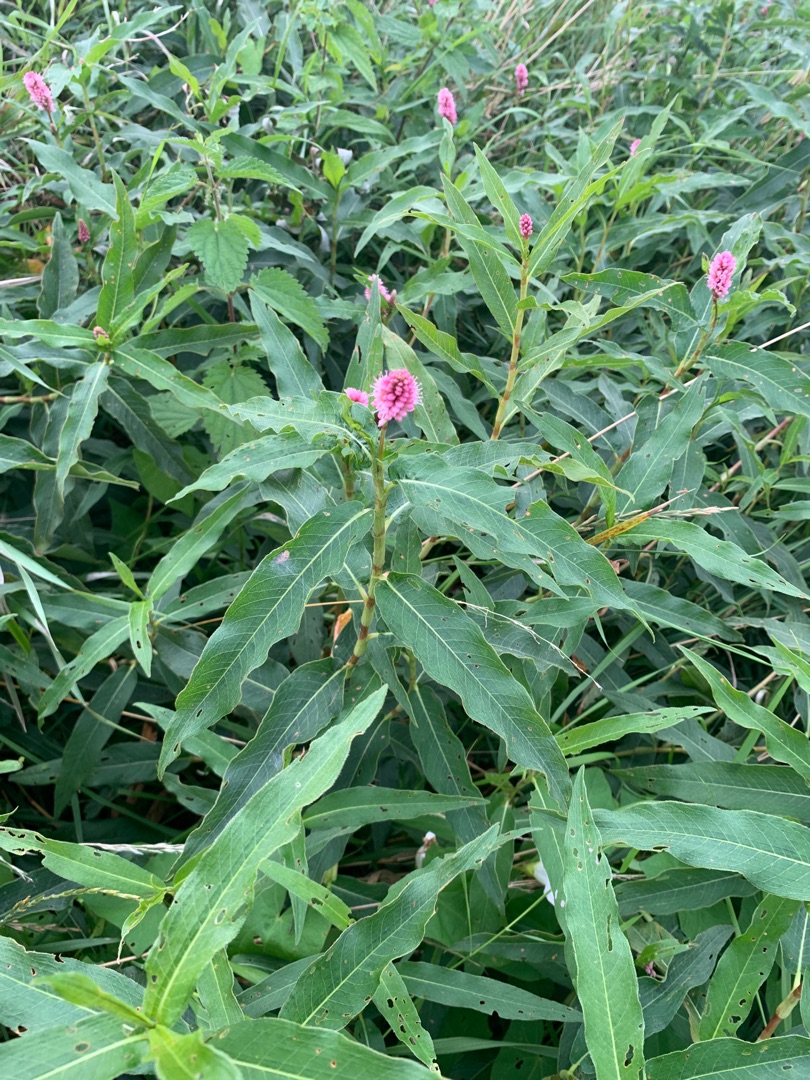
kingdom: Plantae
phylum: Tracheophyta
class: Magnoliopsida
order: Caryophyllales
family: Polygonaceae
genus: Persicaria
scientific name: Persicaria amphibia
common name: Vand-pileurt
